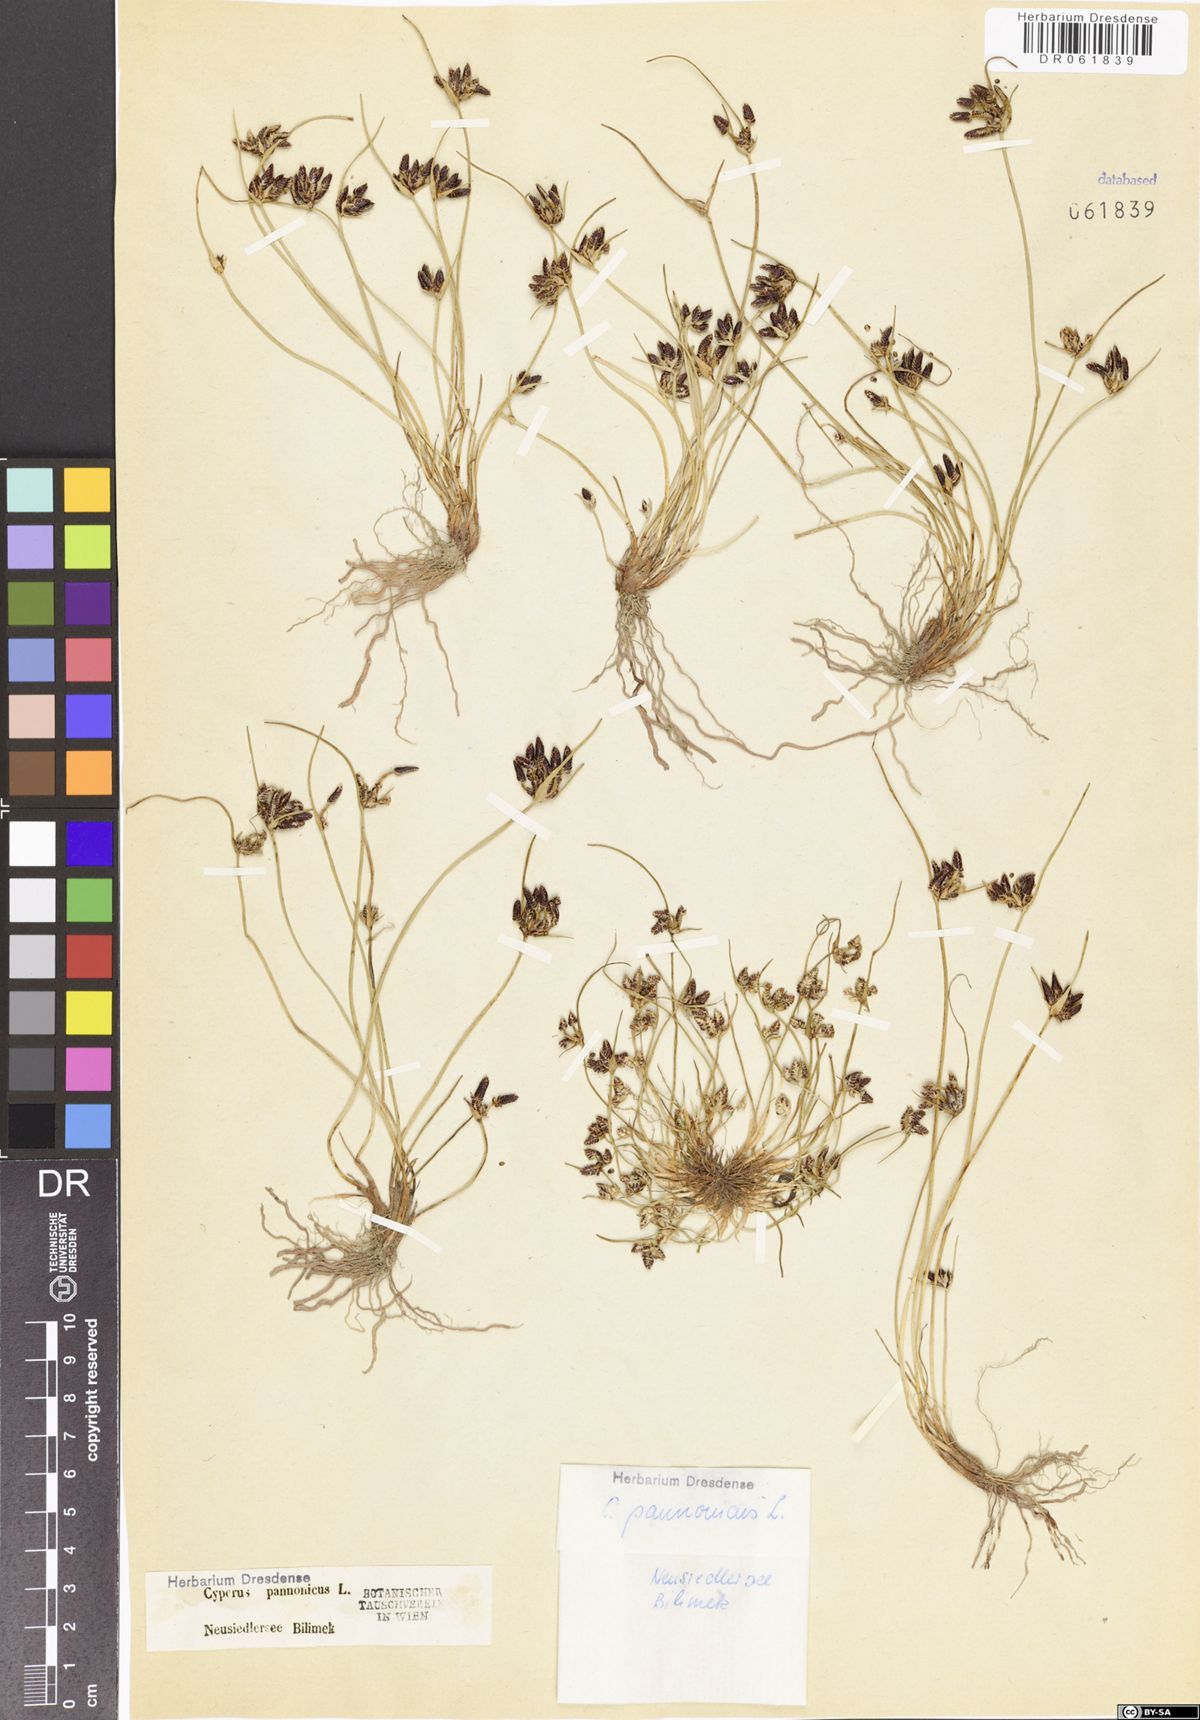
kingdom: Plantae
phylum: Tracheophyta
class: Liliopsida
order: Poales
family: Cyperaceae
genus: Cyperus
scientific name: Cyperus pannonicus
